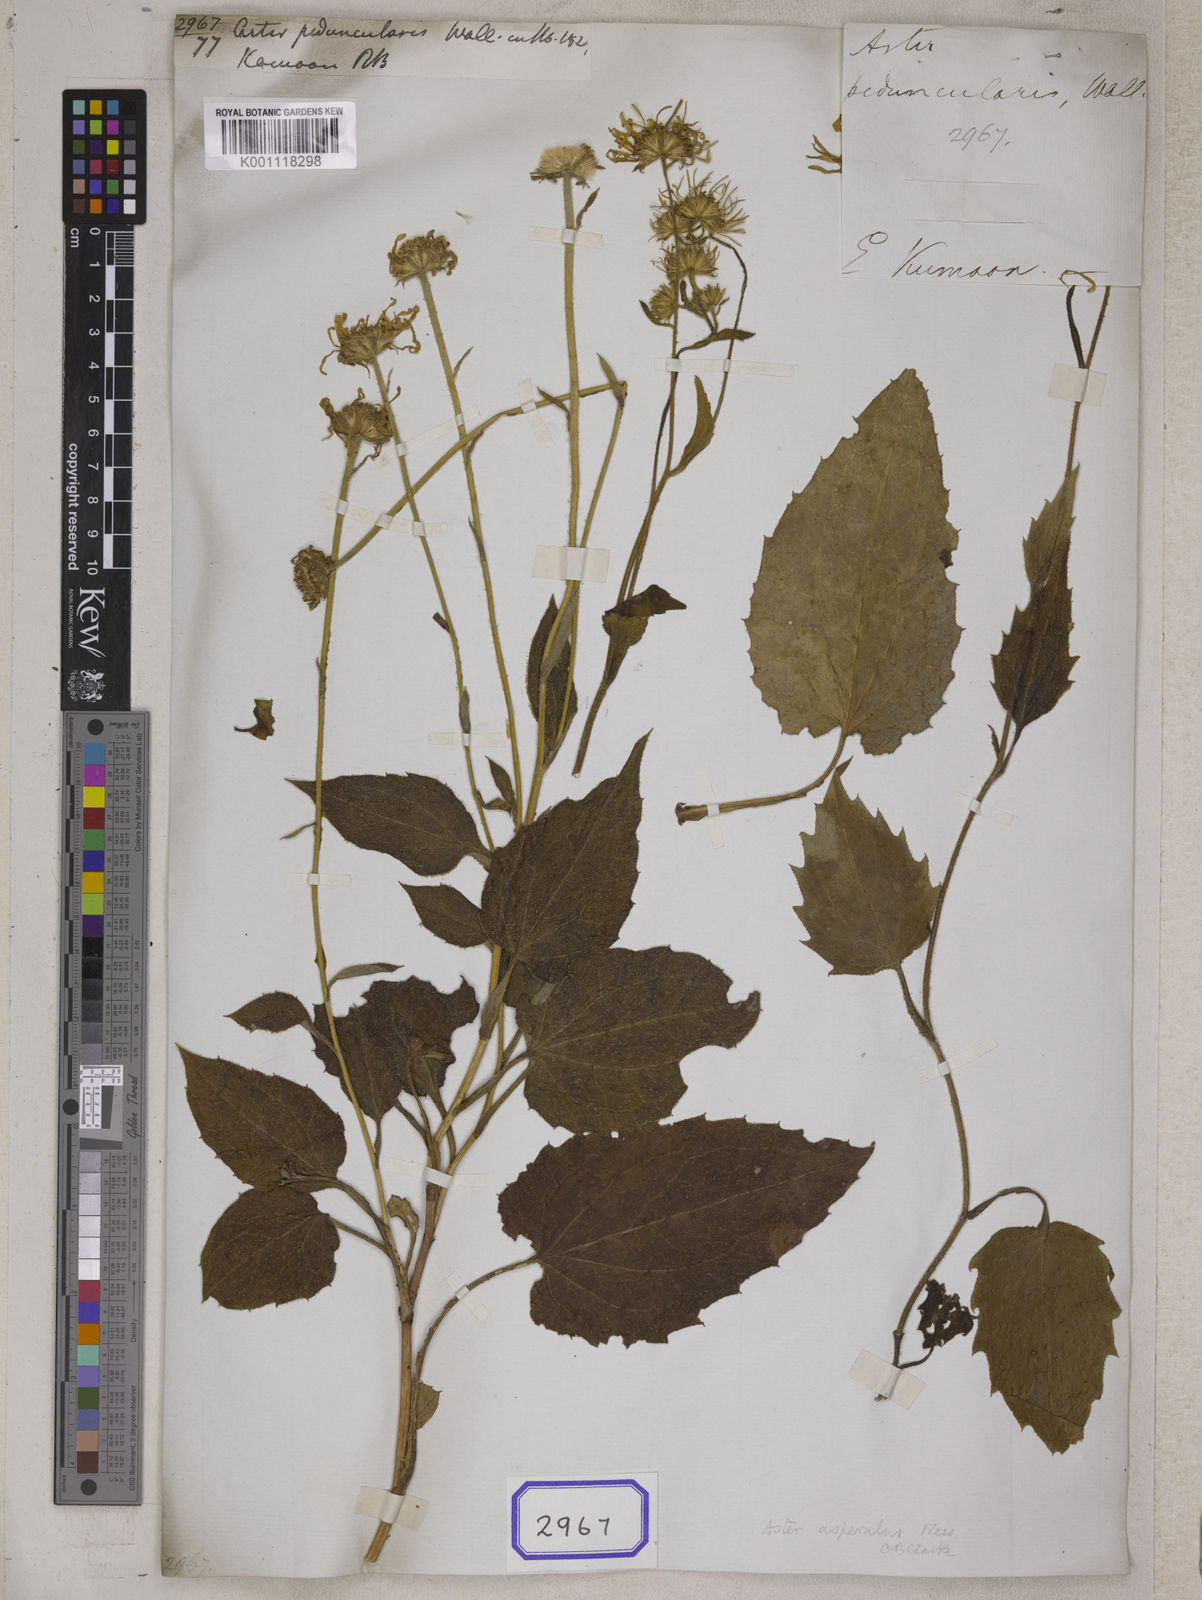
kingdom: Plantae
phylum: Tracheophyta
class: Magnoliopsida
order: Asterales
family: Asteraceae
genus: Aster
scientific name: Aster
